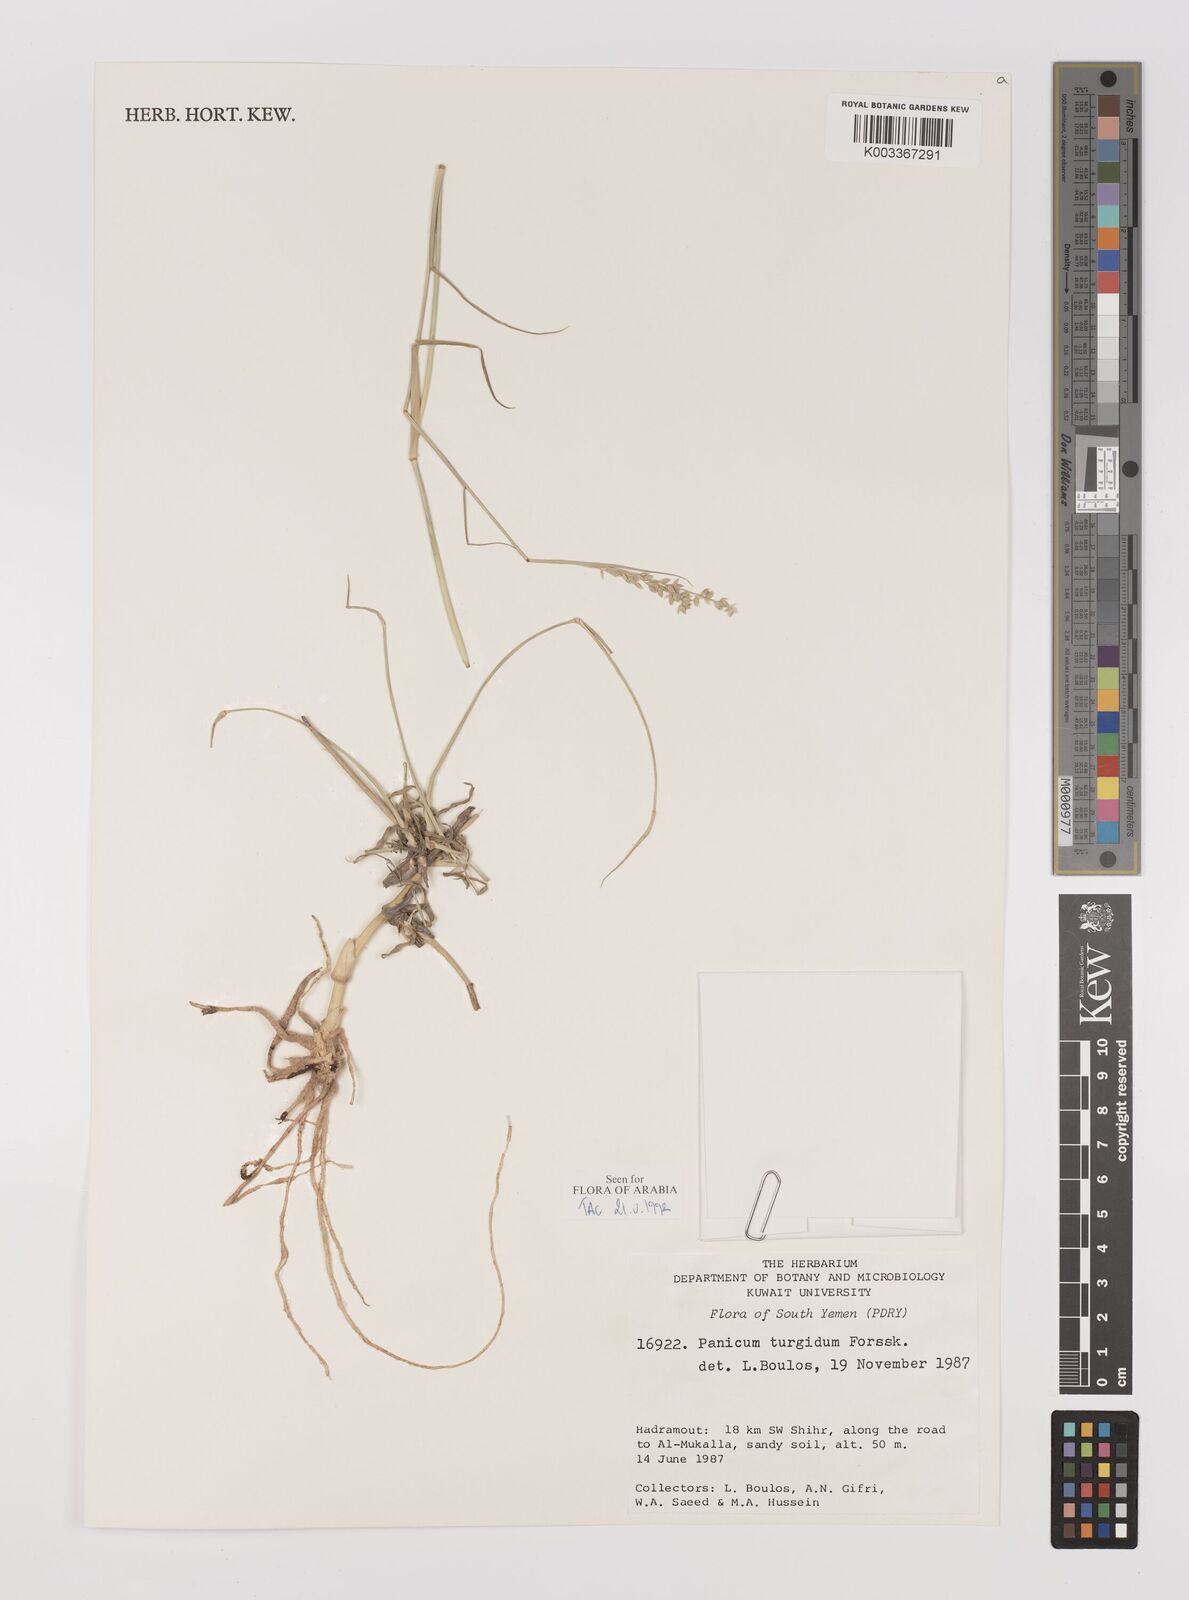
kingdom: Plantae
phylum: Tracheophyta
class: Liliopsida
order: Poales
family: Poaceae
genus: Panicum
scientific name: Panicum turgidum
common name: Desert grass
